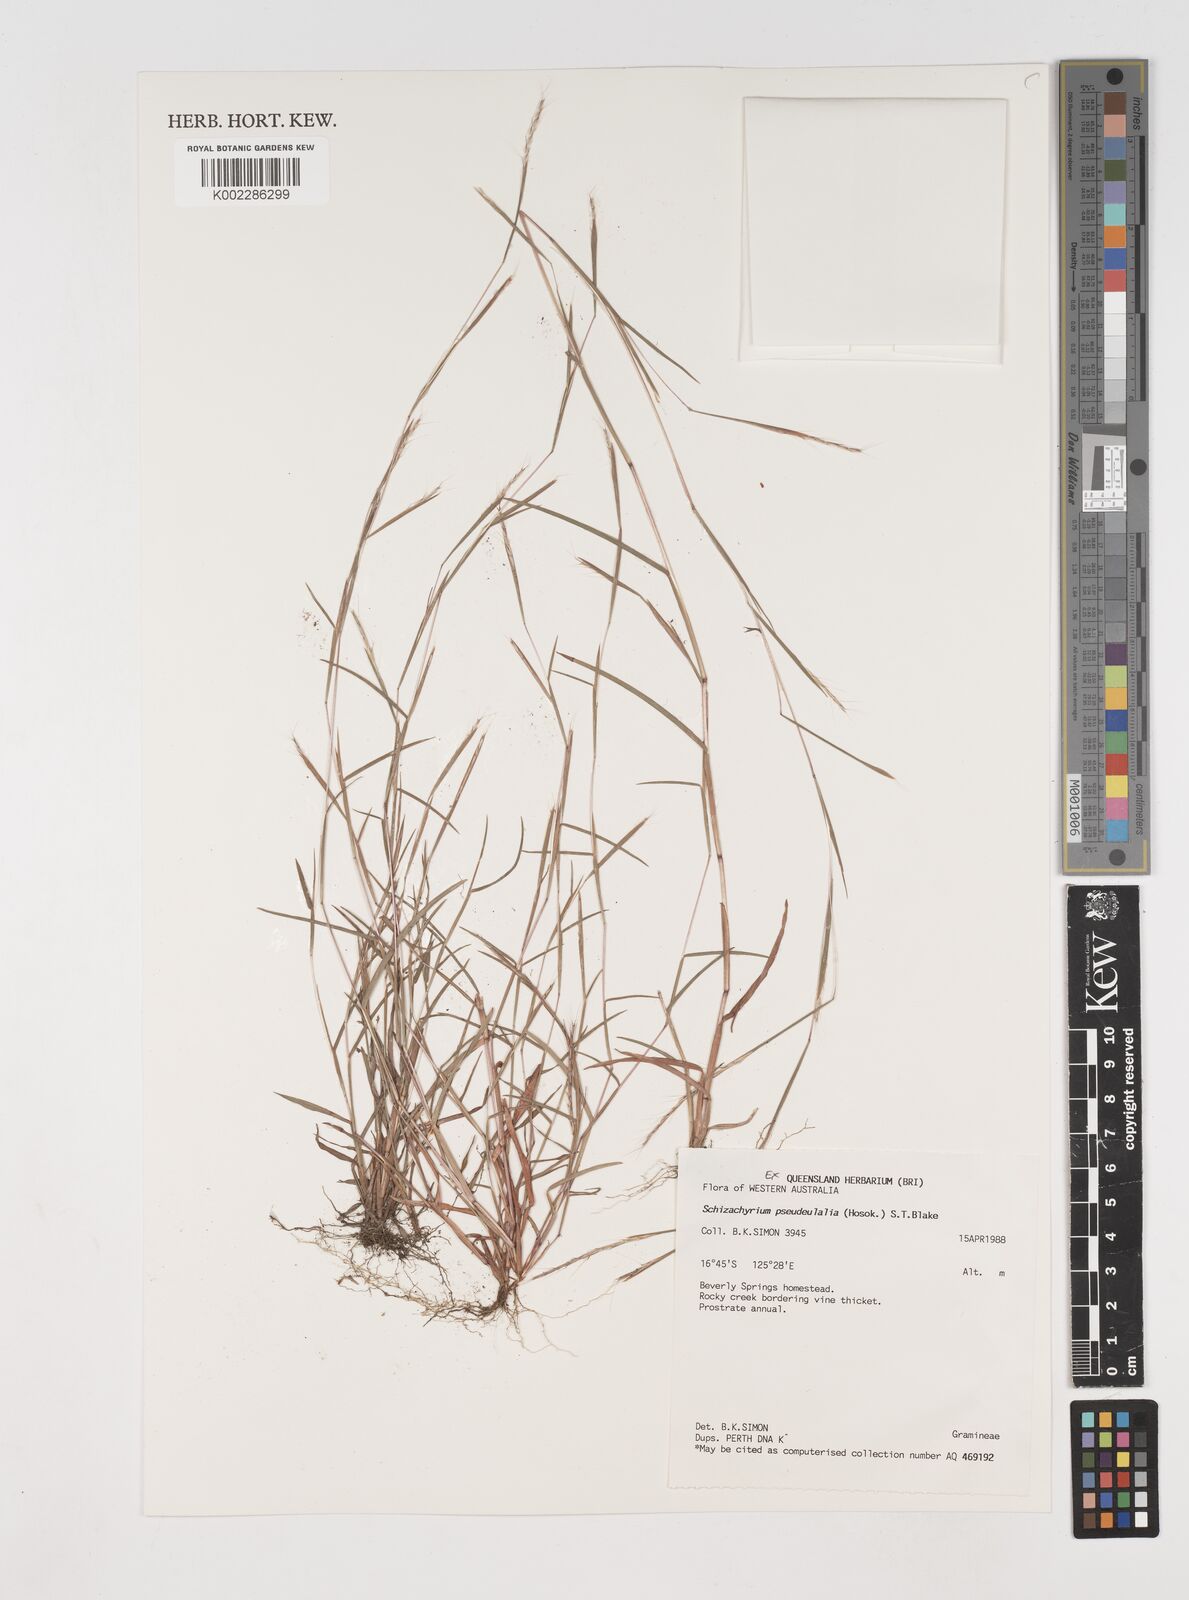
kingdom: Plantae
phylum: Tracheophyta
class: Liliopsida
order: Poales
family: Poaceae
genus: Schizachyrium
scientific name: Schizachyrium pseudeulalia
